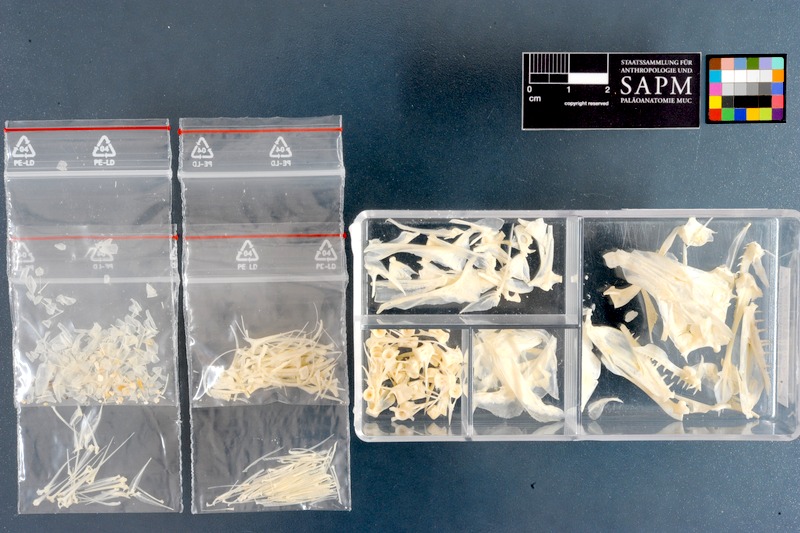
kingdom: Animalia
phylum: Chordata
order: Perciformes
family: Scombropidae
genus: Scombrops
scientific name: Scombrops boops
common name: Gnomefish
